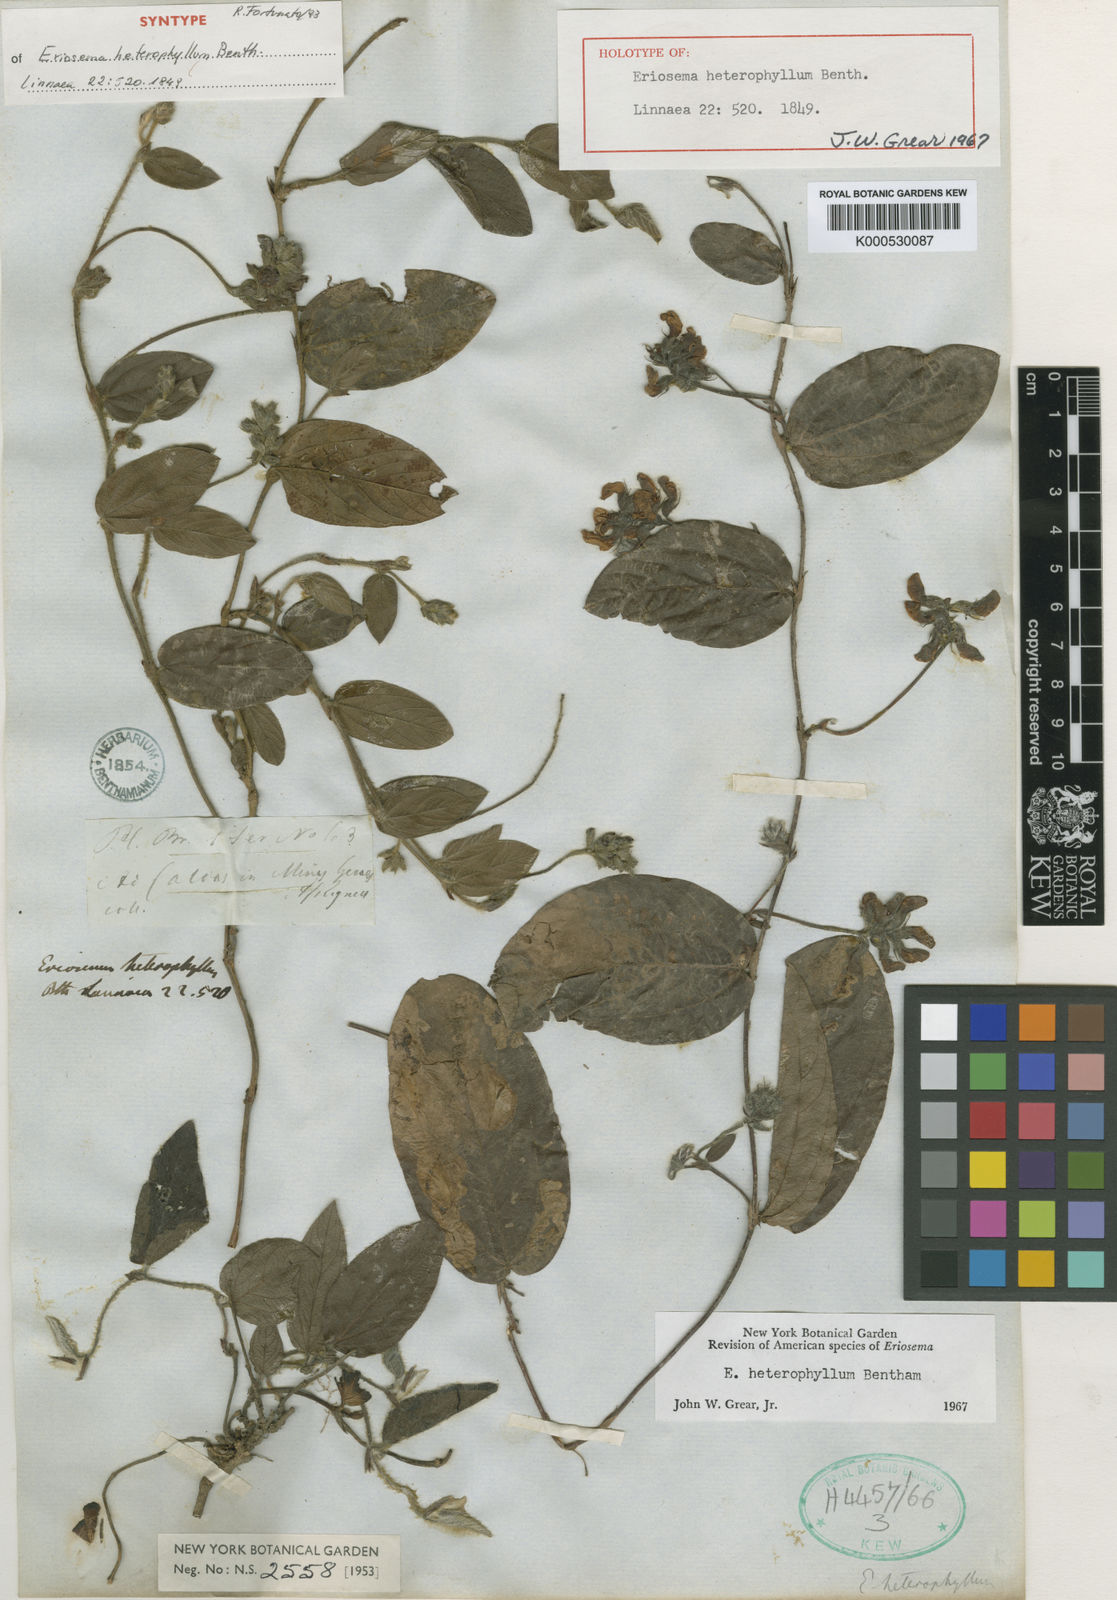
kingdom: Plantae
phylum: Tracheophyta
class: Magnoliopsida
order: Fabales
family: Fabaceae
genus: Eriosema
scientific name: Eriosema heterophyllum
